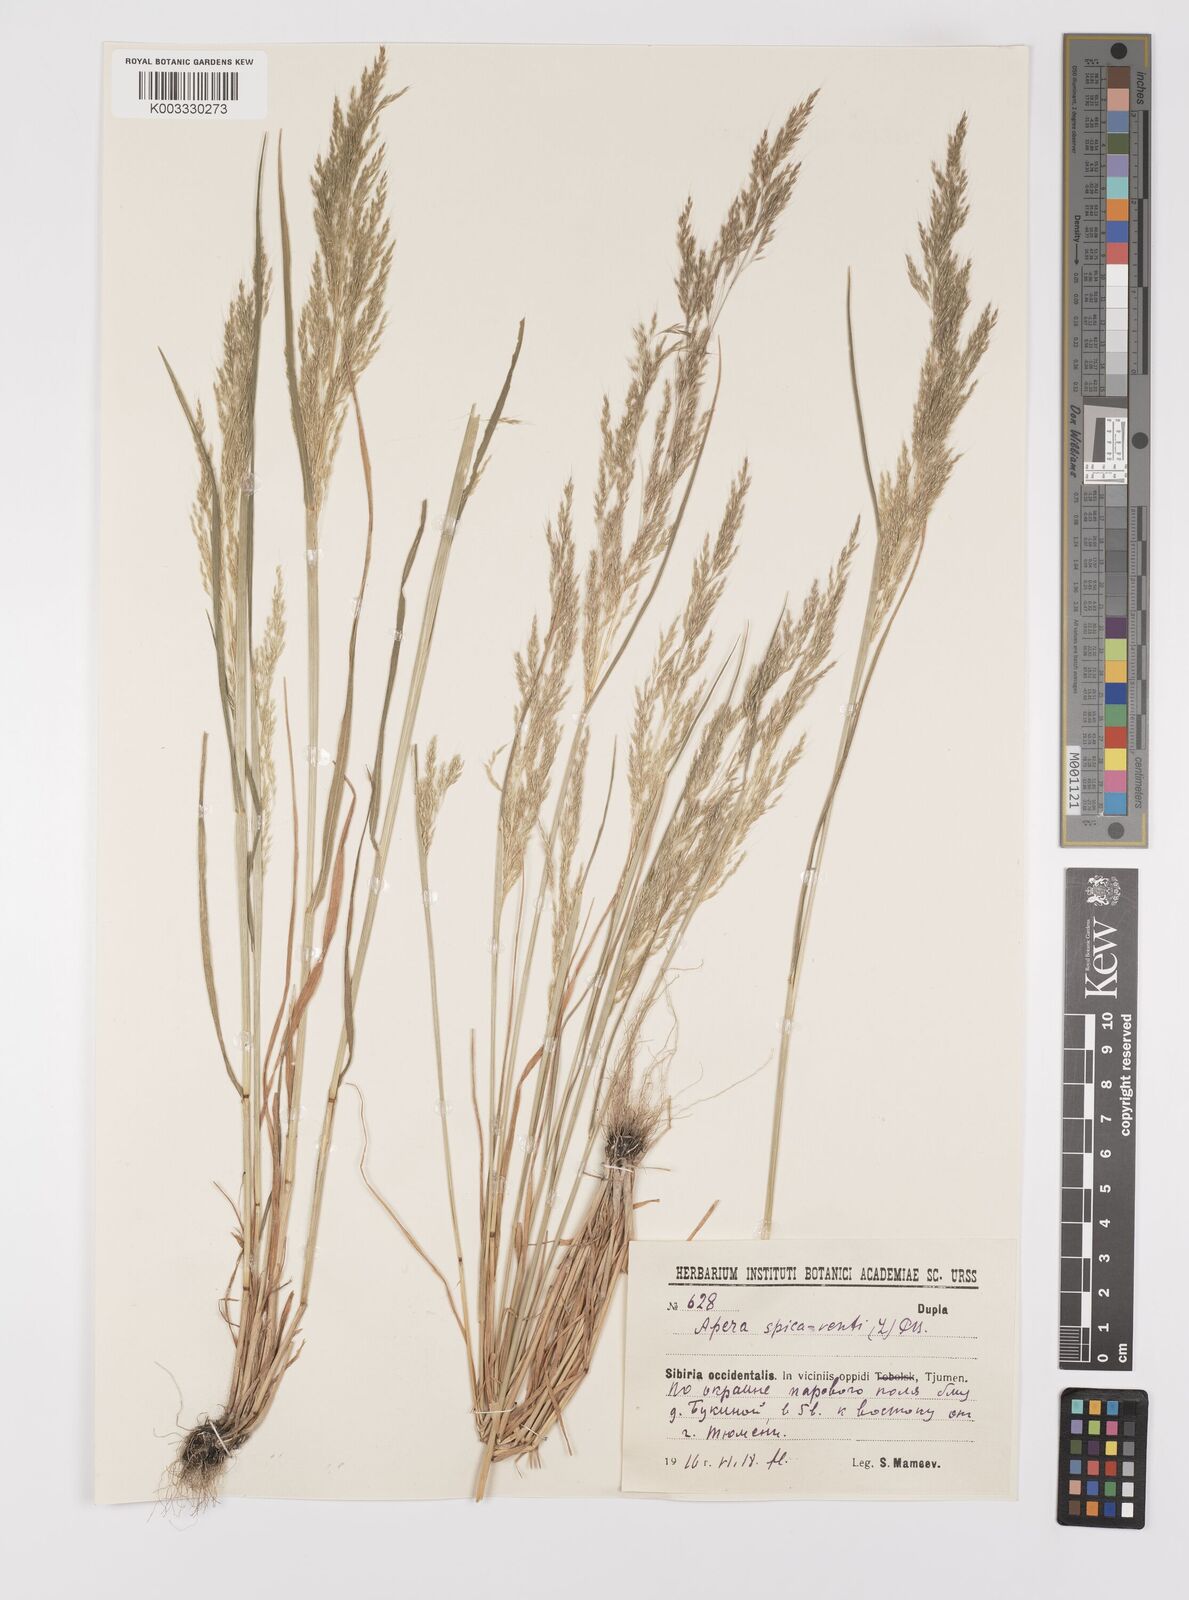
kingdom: Plantae
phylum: Tracheophyta
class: Liliopsida
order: Poales
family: Poaceae
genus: Apera
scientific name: Apera spica-venti
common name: Loose silky-bent
